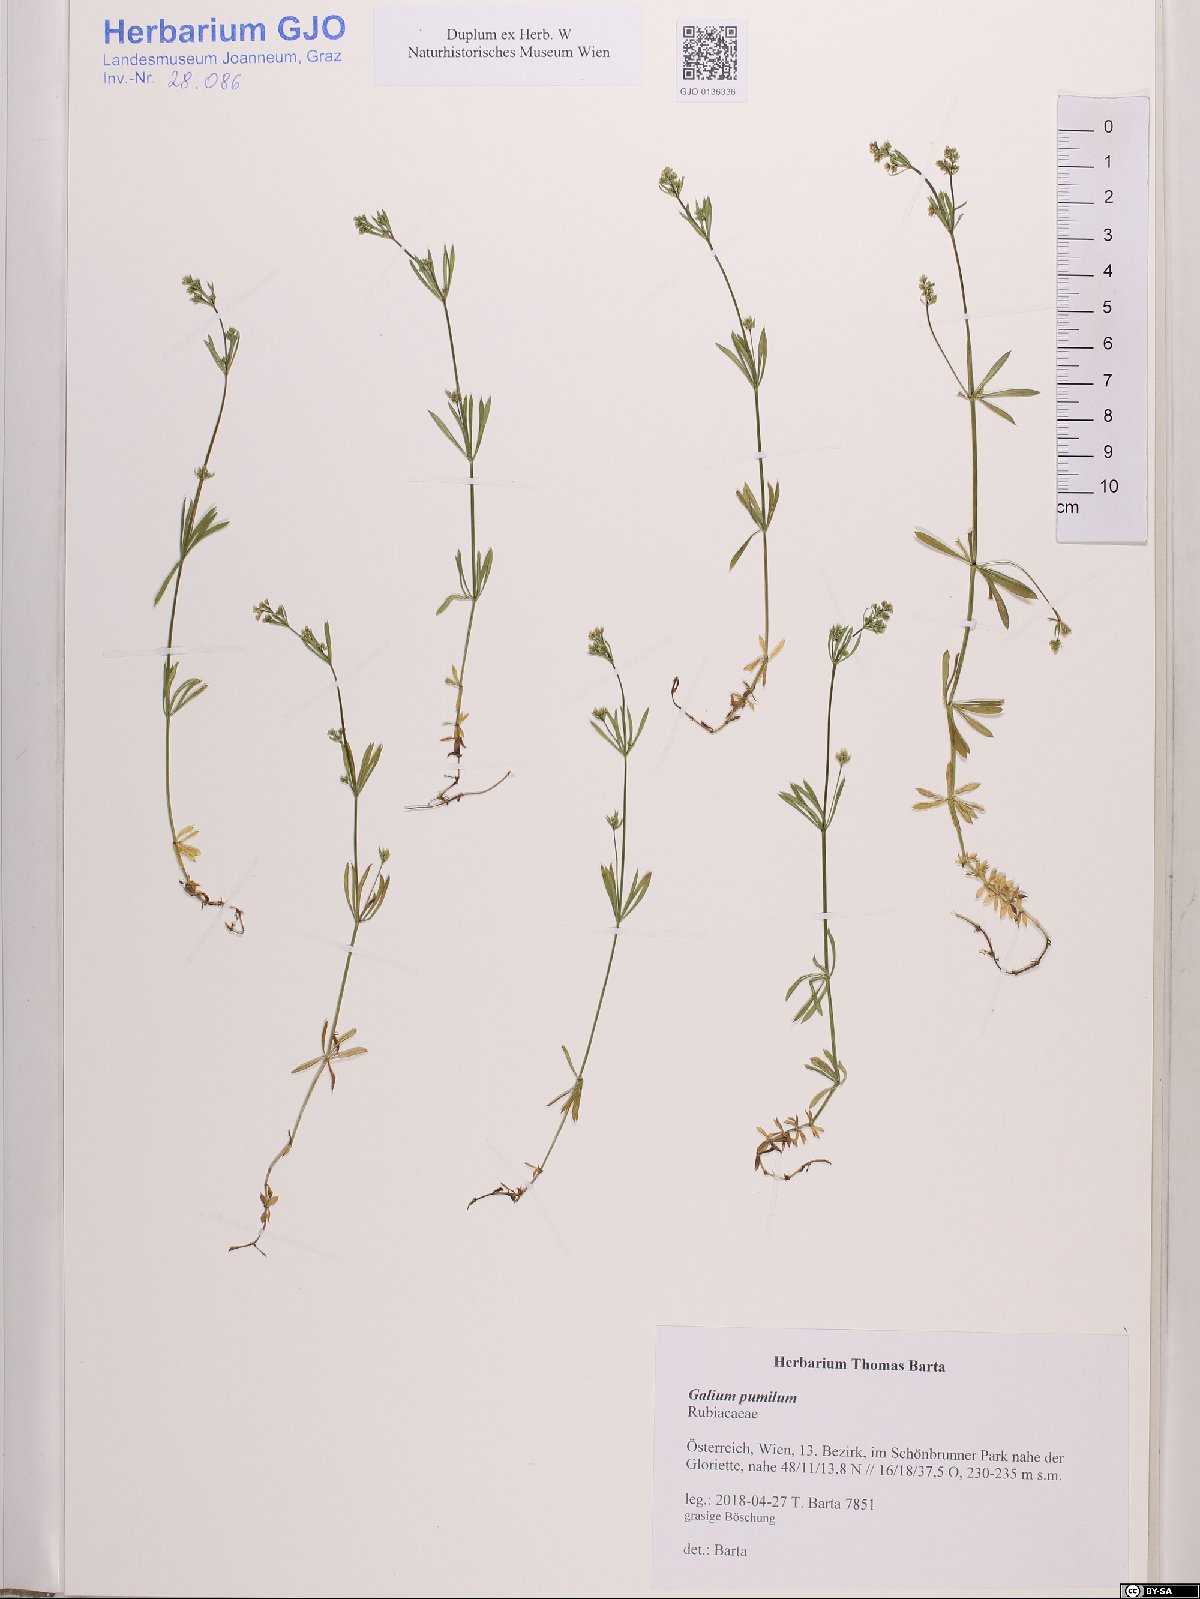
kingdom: Plantae
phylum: Tracheophyta
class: Magnoliopsida
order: Gentianales
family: Rubiaceae
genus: Galium
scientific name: Galium pumilum
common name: Slender bedstraw
